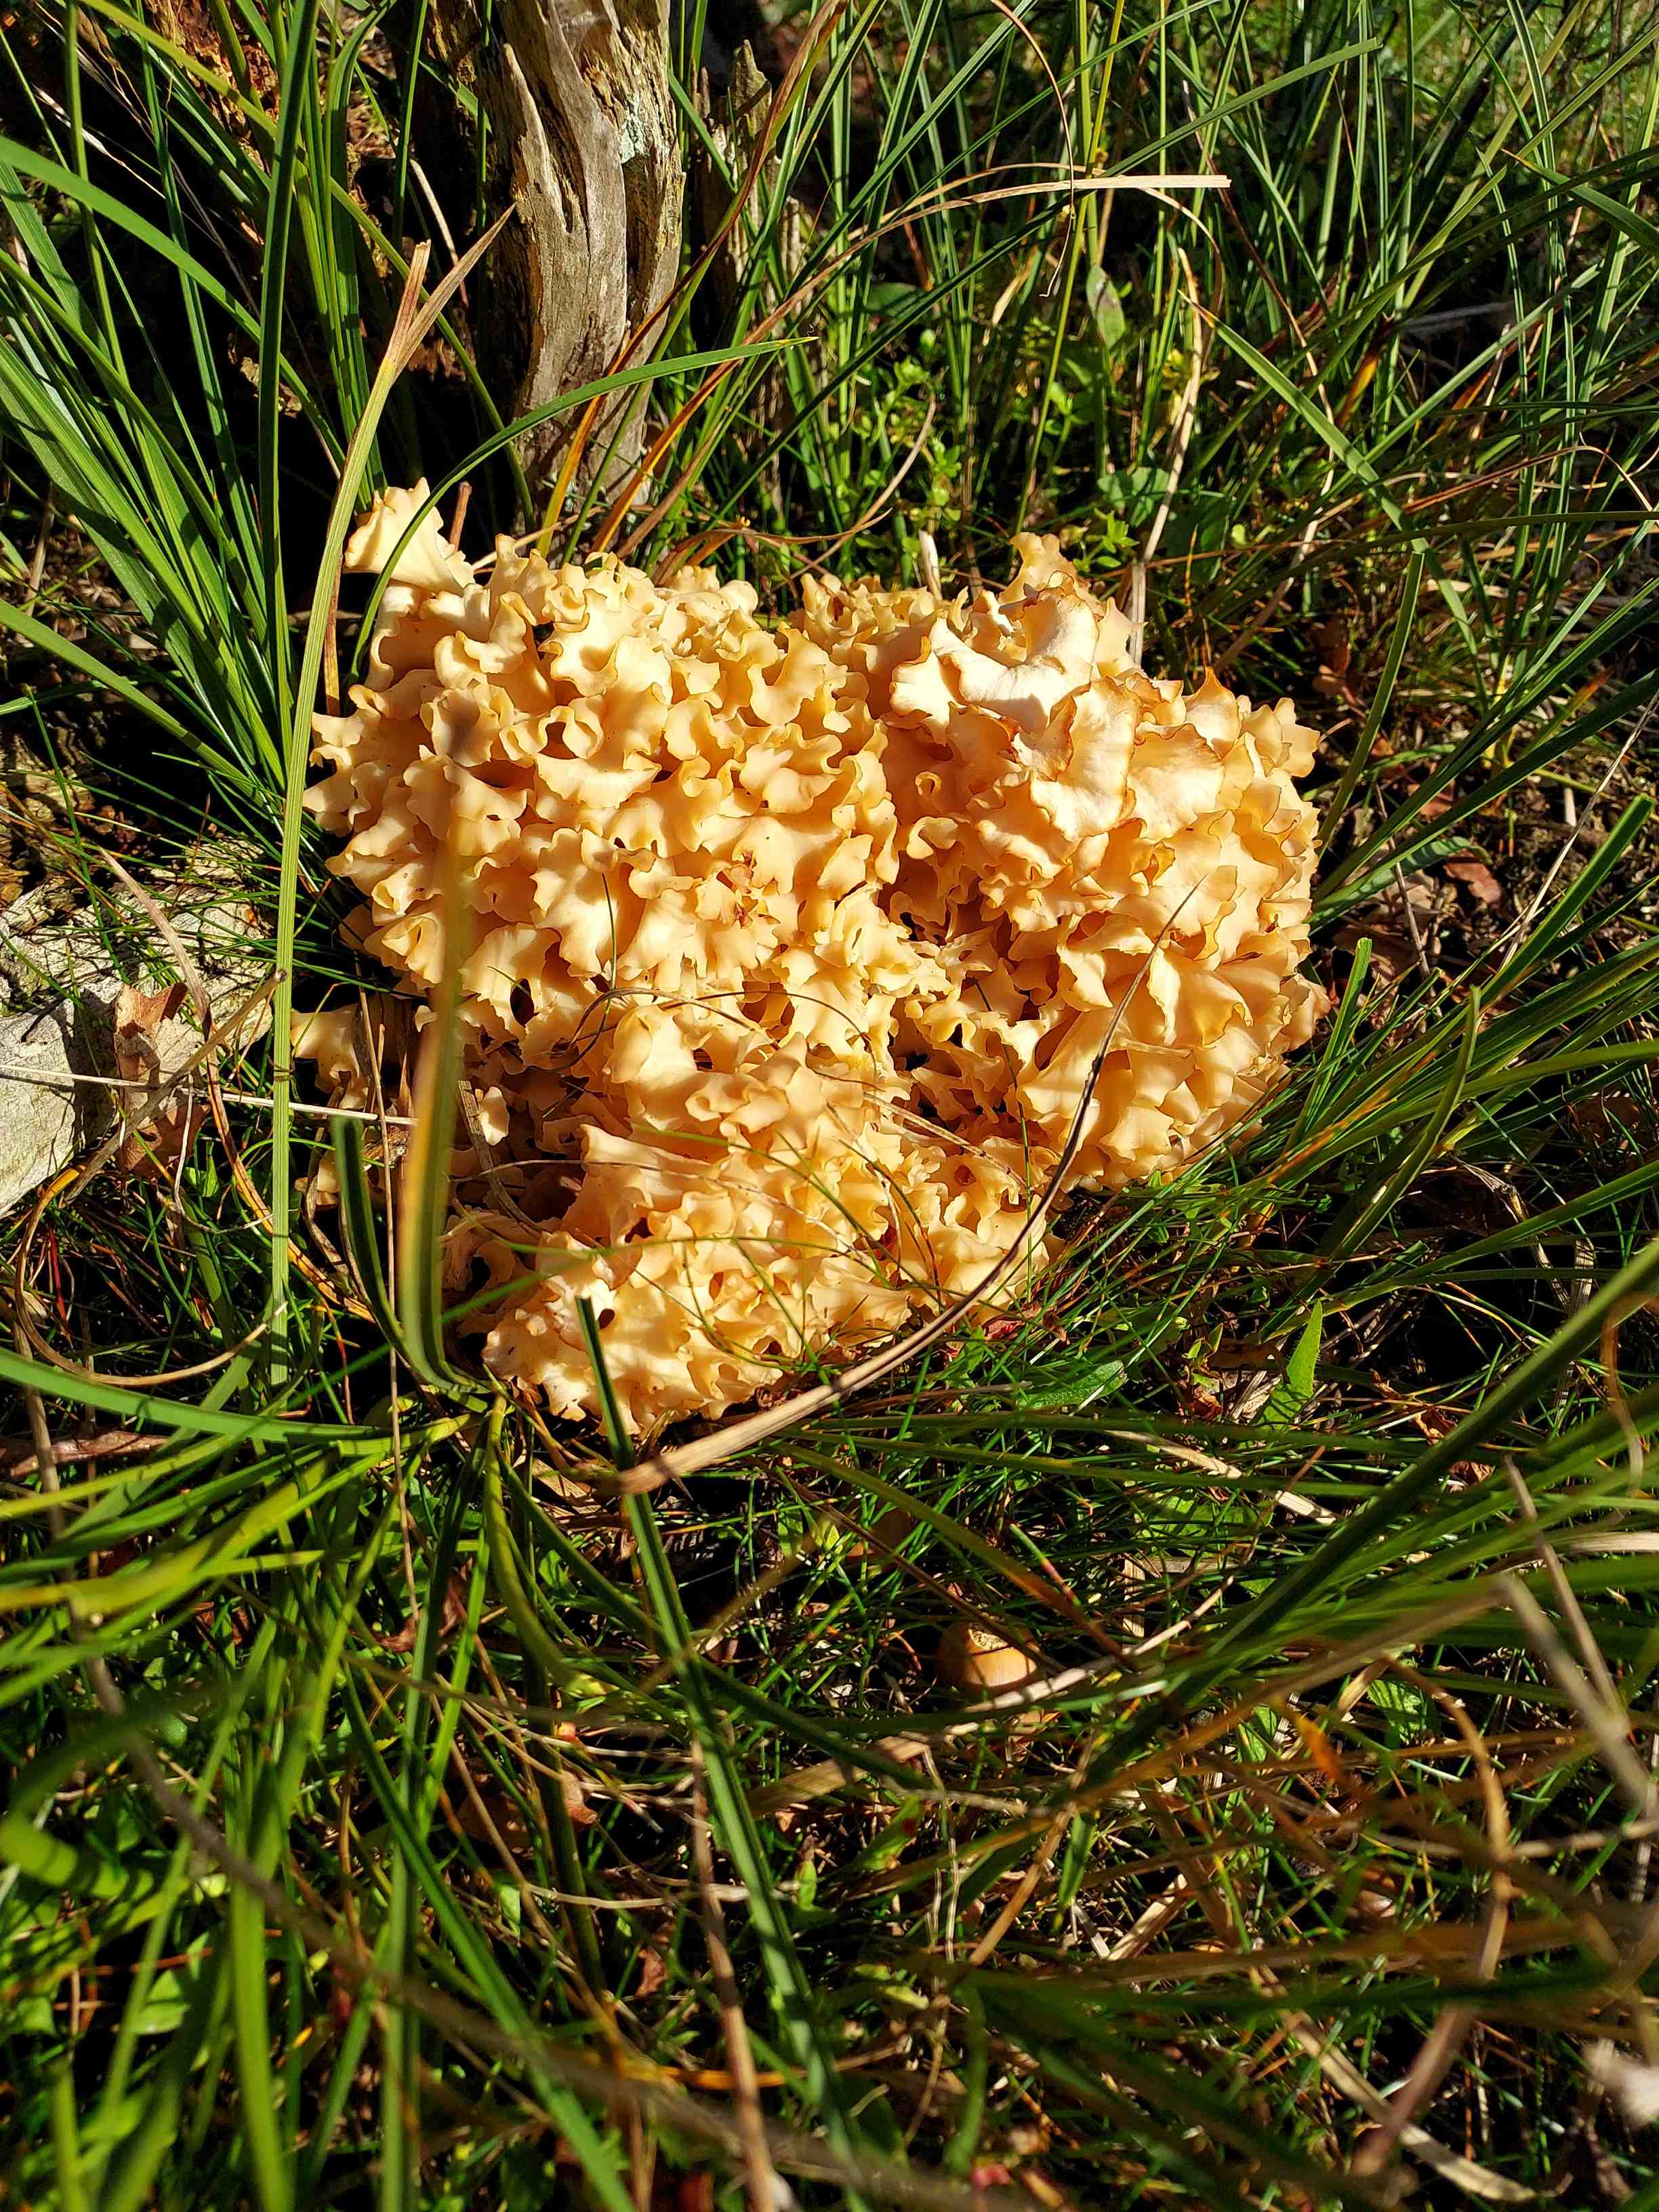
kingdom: Fungi
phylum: Basidiomycota
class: Agaricomycetes
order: Polyporales
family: Sparassidaceae
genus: Sparassis
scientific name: Sparassis crispa
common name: kruset blomkålssvamp
